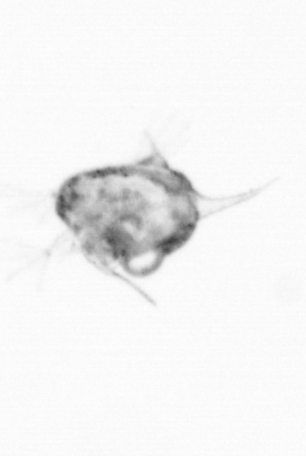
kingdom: Animalia
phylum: Arthropoda
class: Copepoda
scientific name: Copepoda
